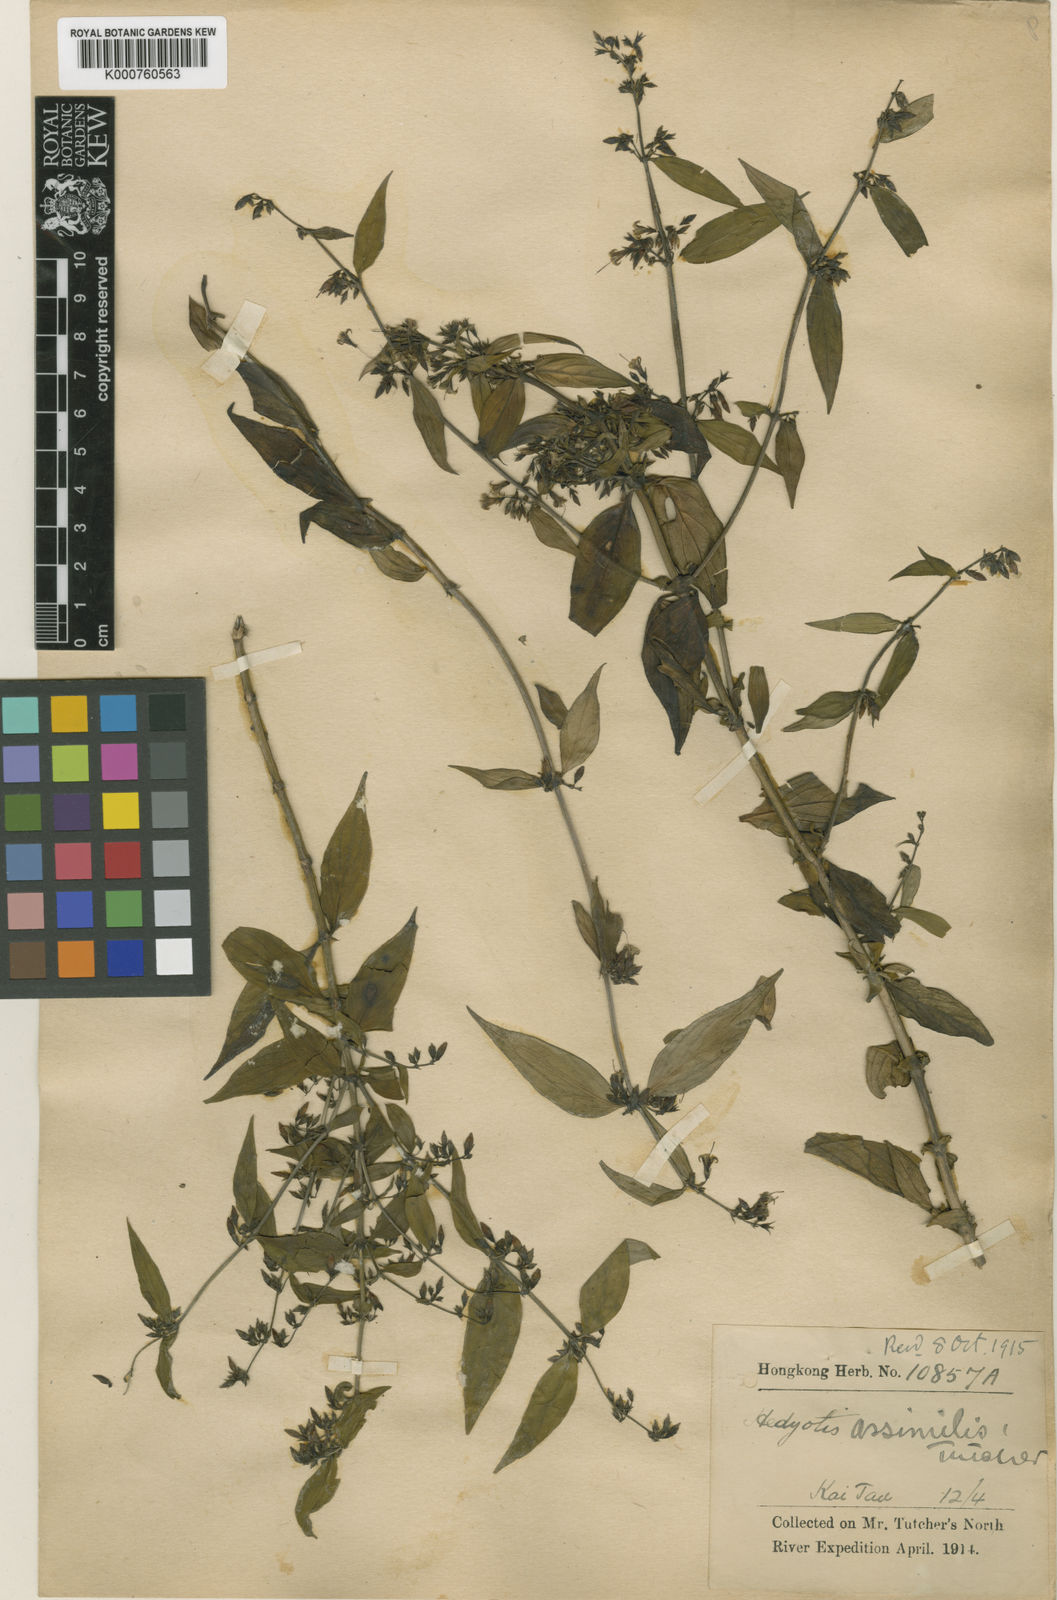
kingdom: Plantae
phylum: Tracheophyta
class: Magnoliopsida
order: Gentianales
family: Rubiaceae
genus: Hedyotis
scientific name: Hedyotis matthewii
